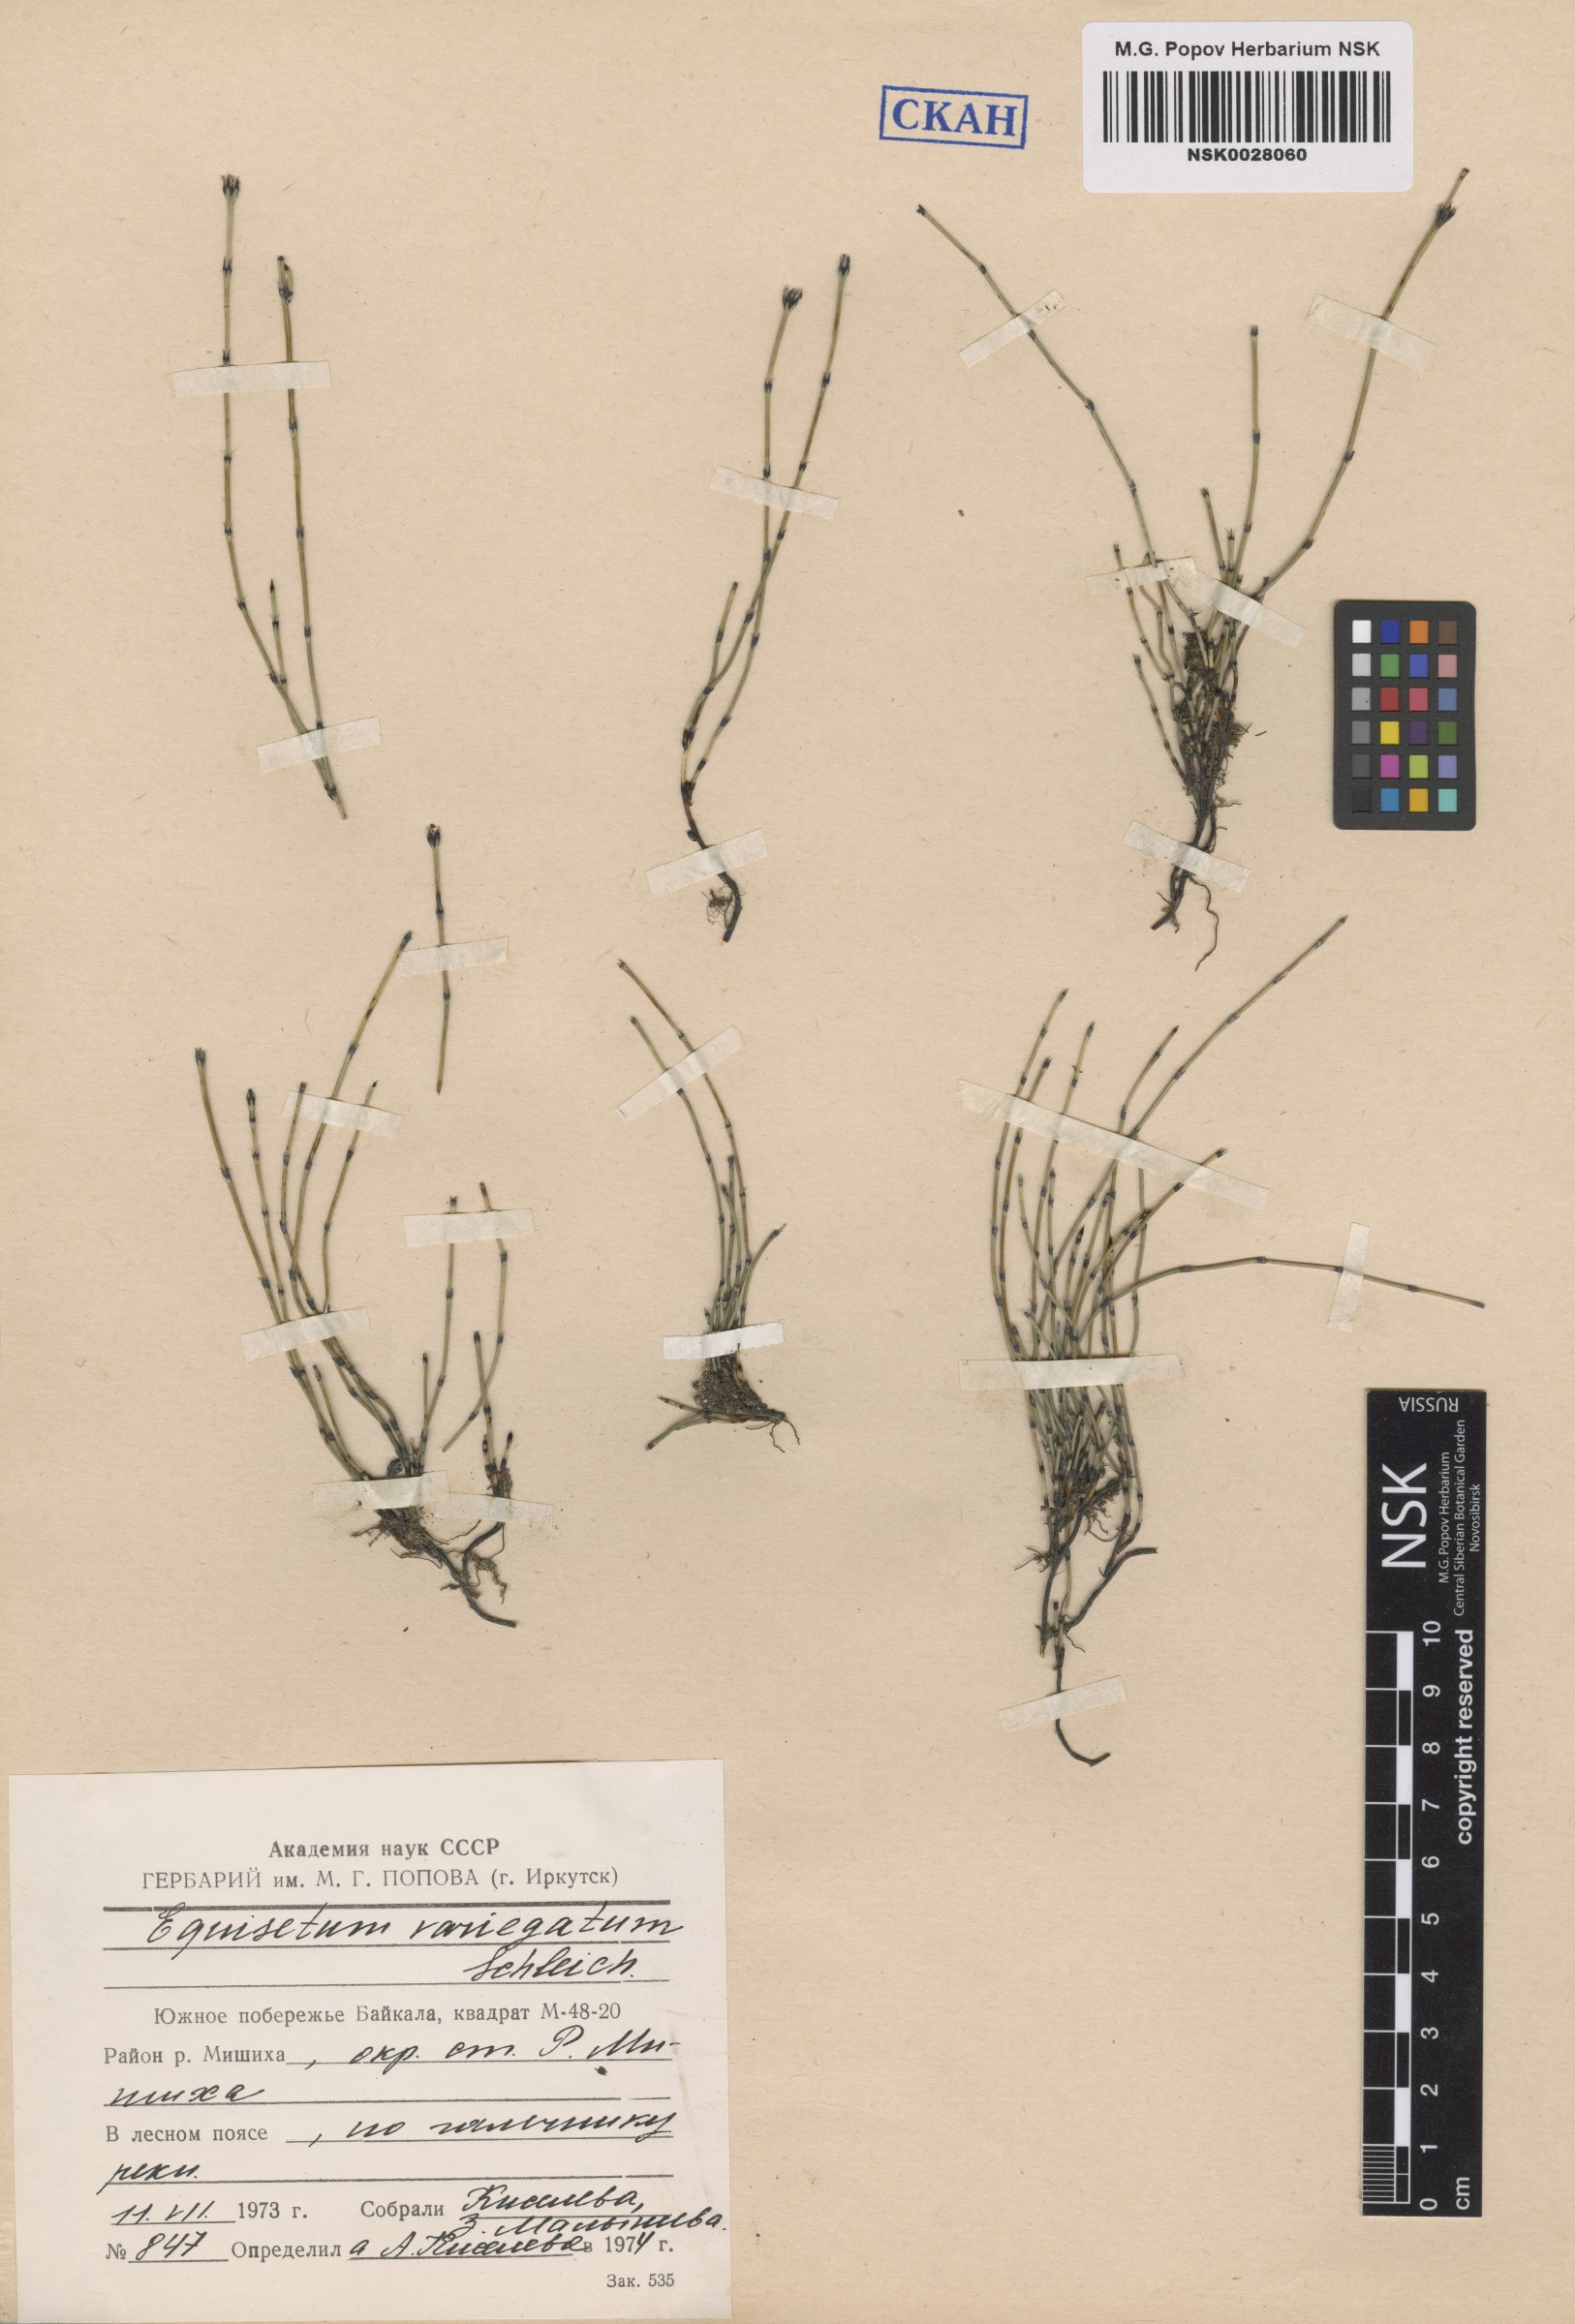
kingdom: Plantae
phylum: Tracheophyta
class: Polypodiopsida
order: Equisetales
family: Equisetaceae
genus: Equisetum
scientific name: Equisetum variegatum
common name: Variegated horsetail
